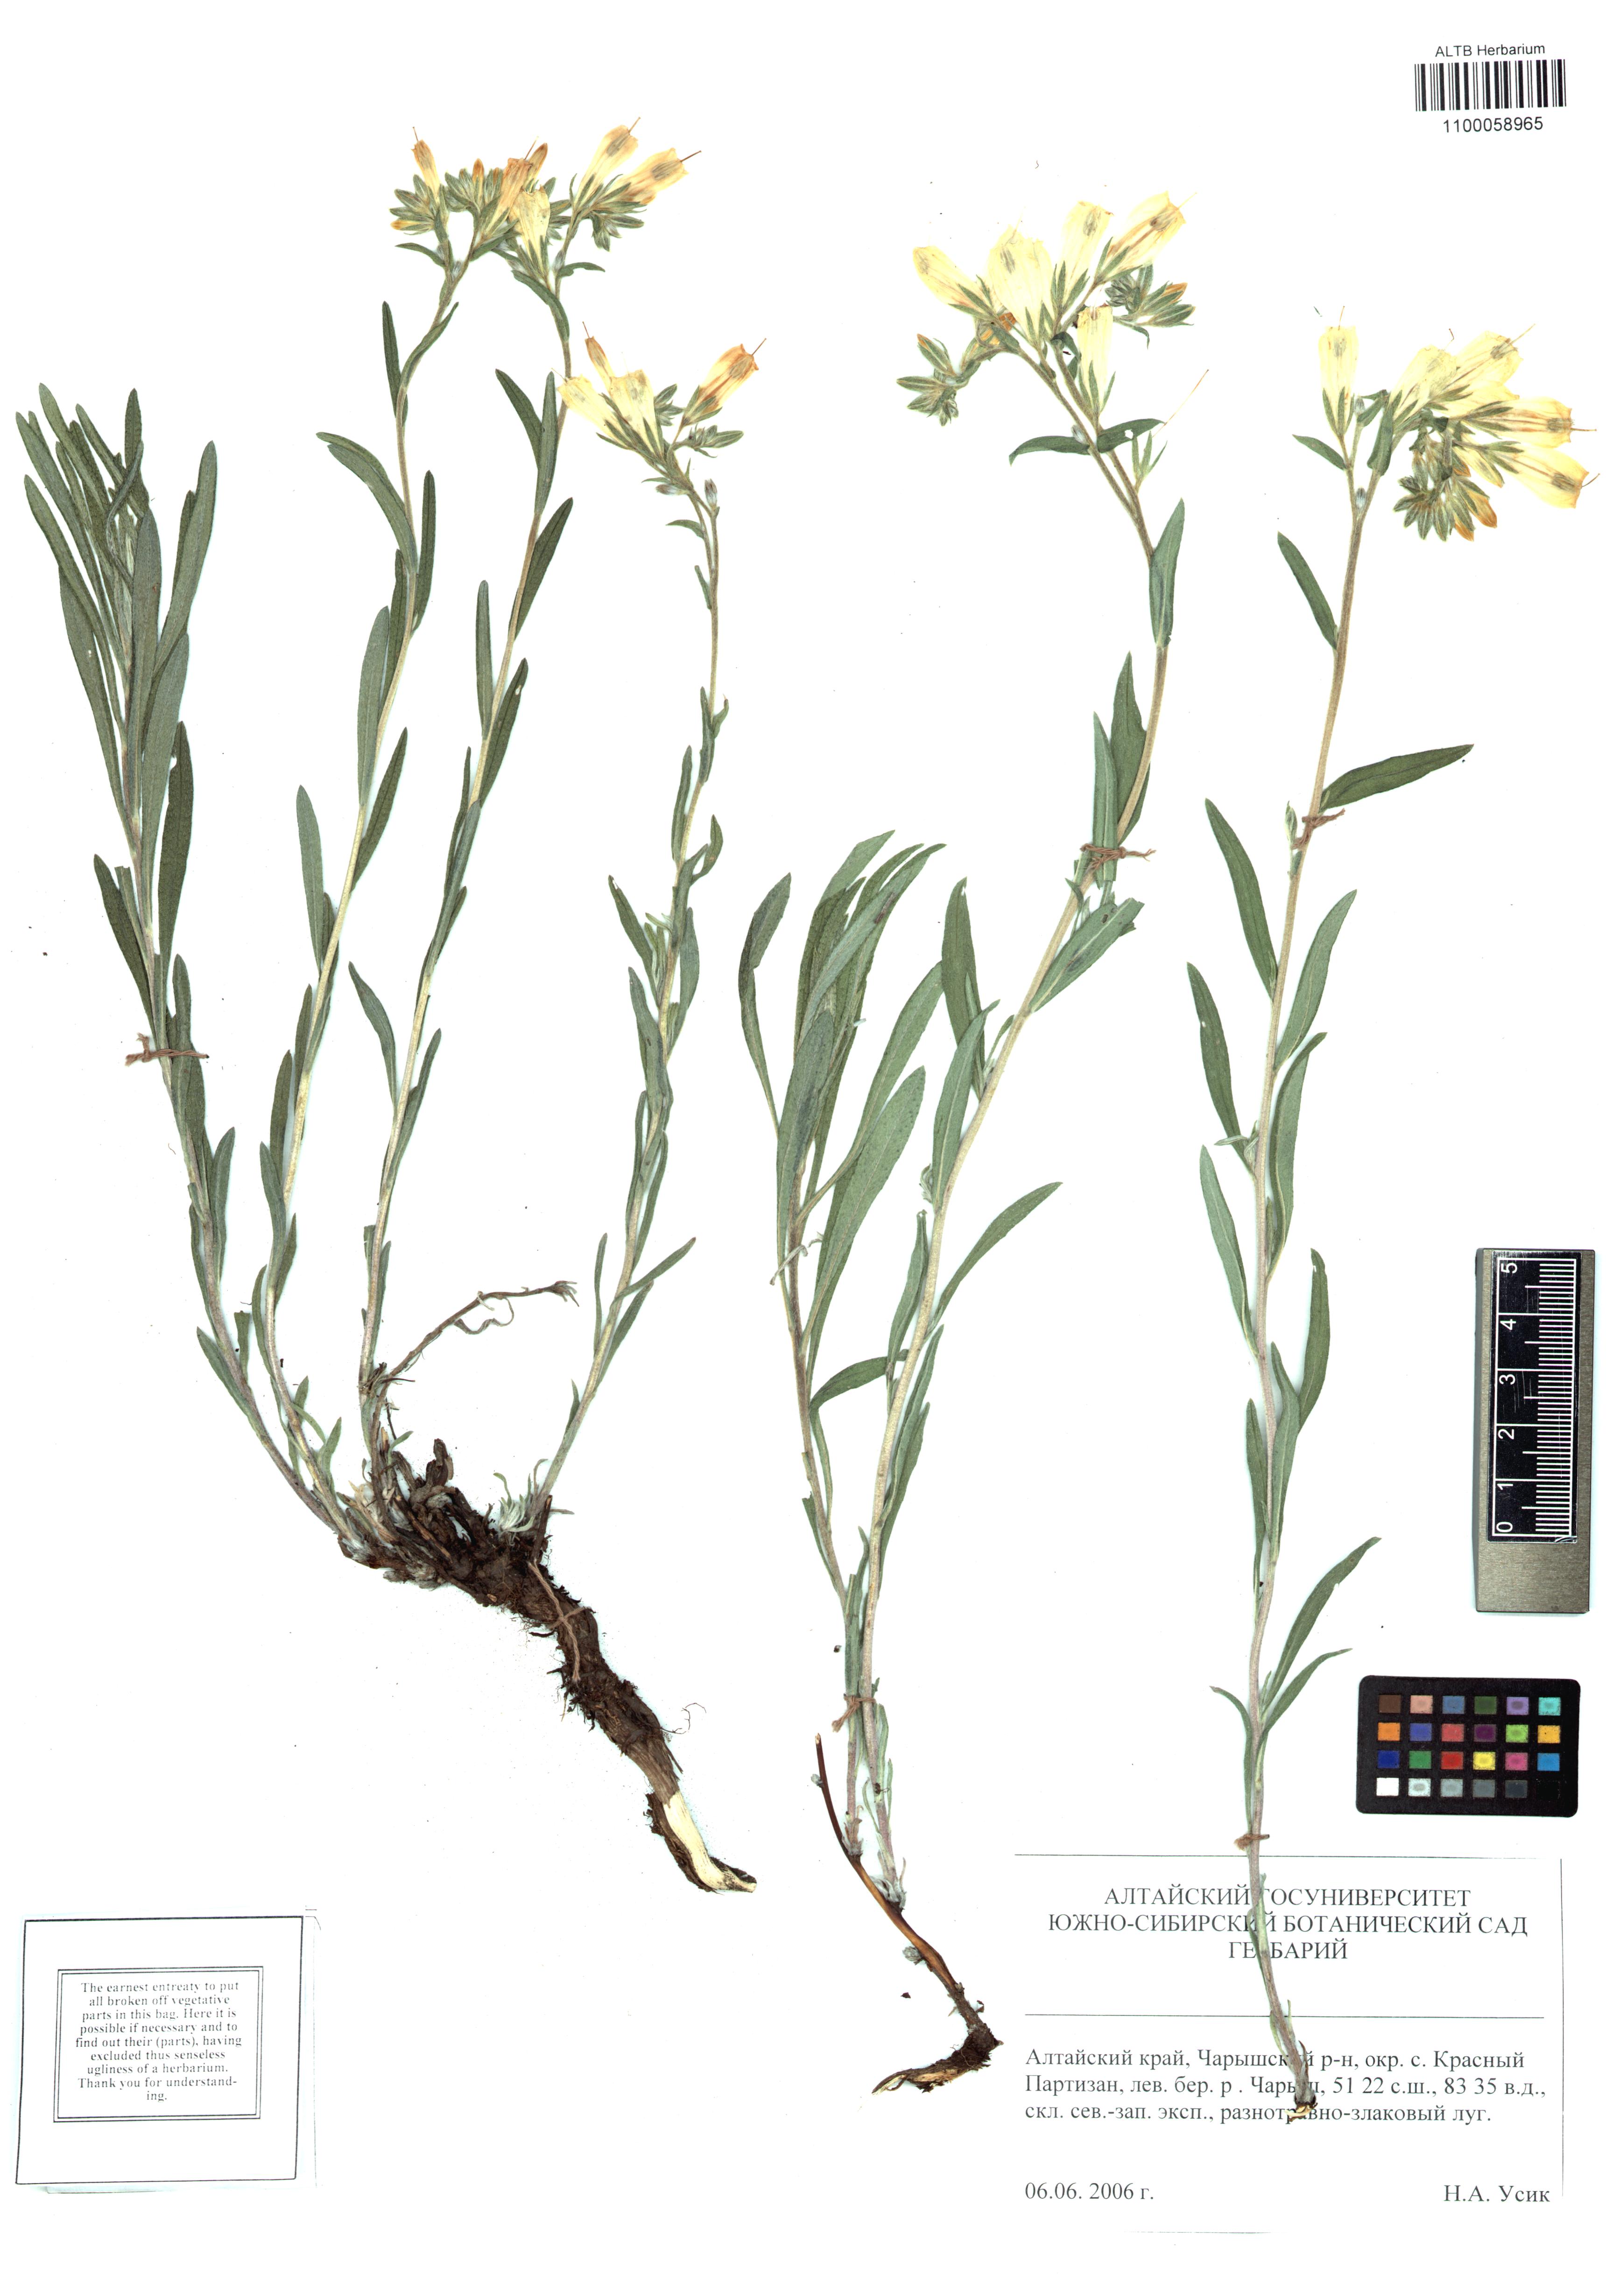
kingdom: Plantae
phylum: Tracheophyta
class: Magnoliopsida
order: Boraginales
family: Boraginaceae
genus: Onosma
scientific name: Onosma setosa
